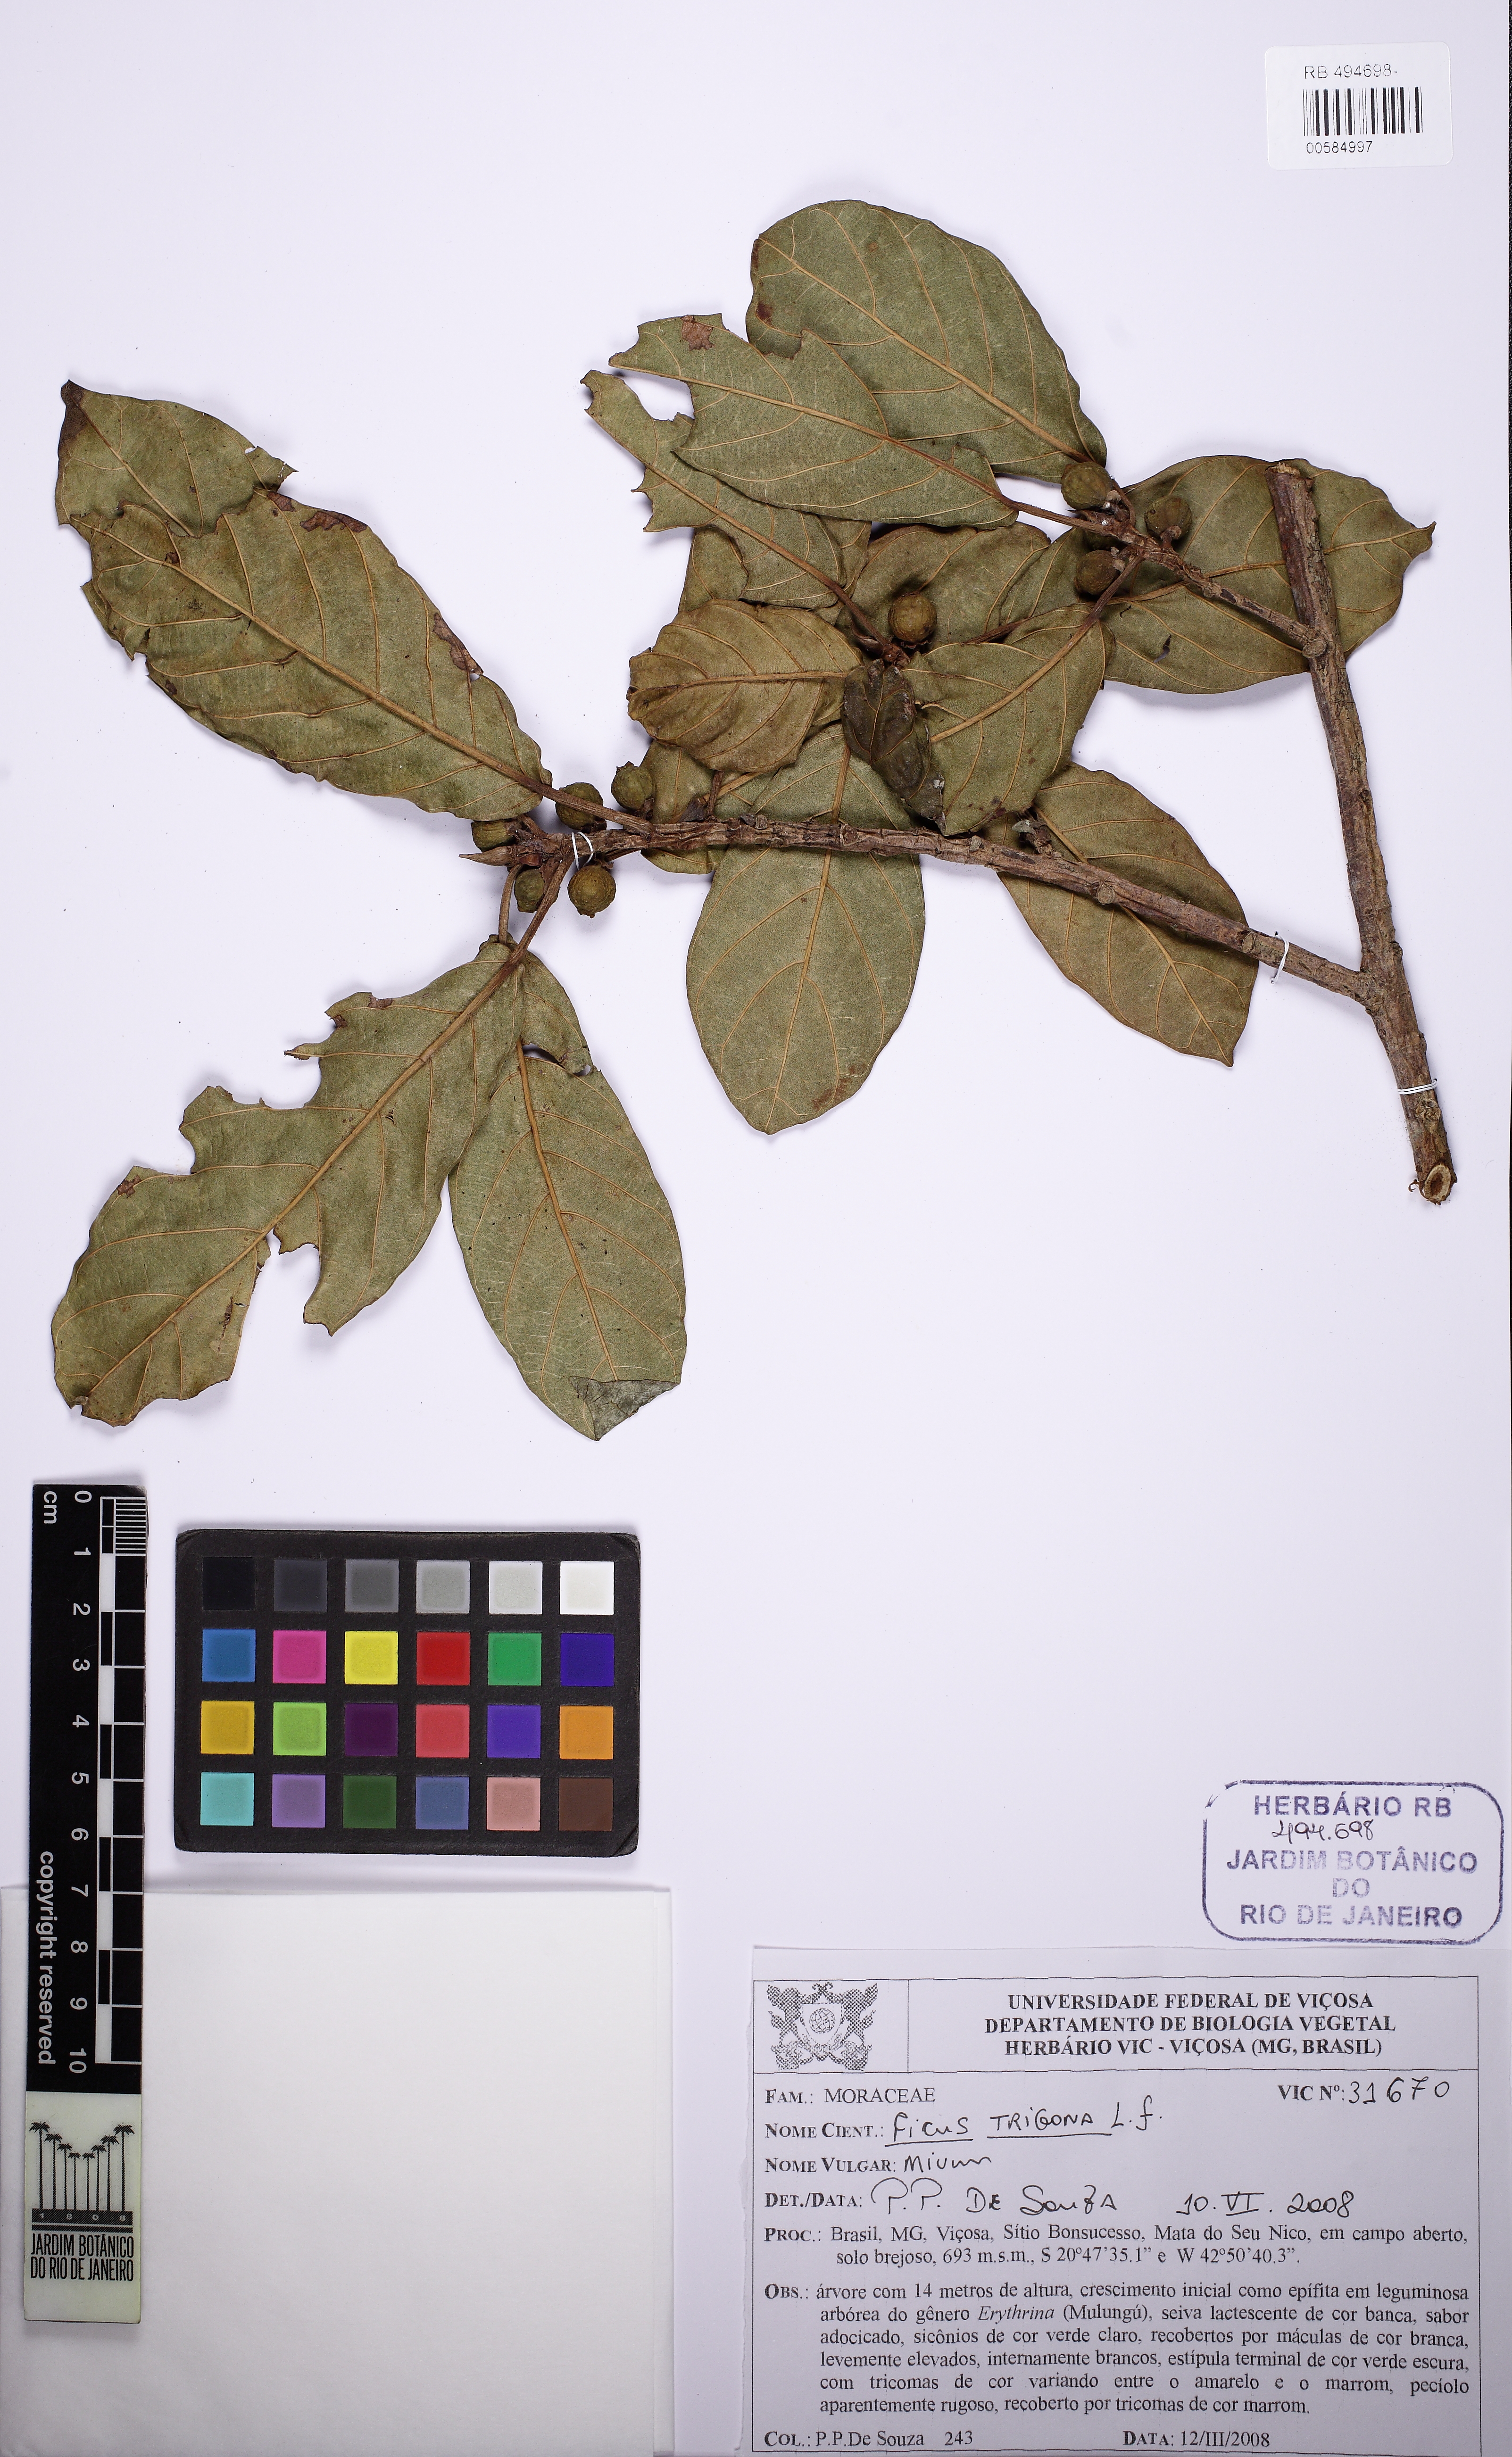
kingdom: Plantae
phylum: Tracheophyta
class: Magnoliopsida
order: Rosales
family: Moraceae
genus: Ficus
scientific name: Ficus trigona
